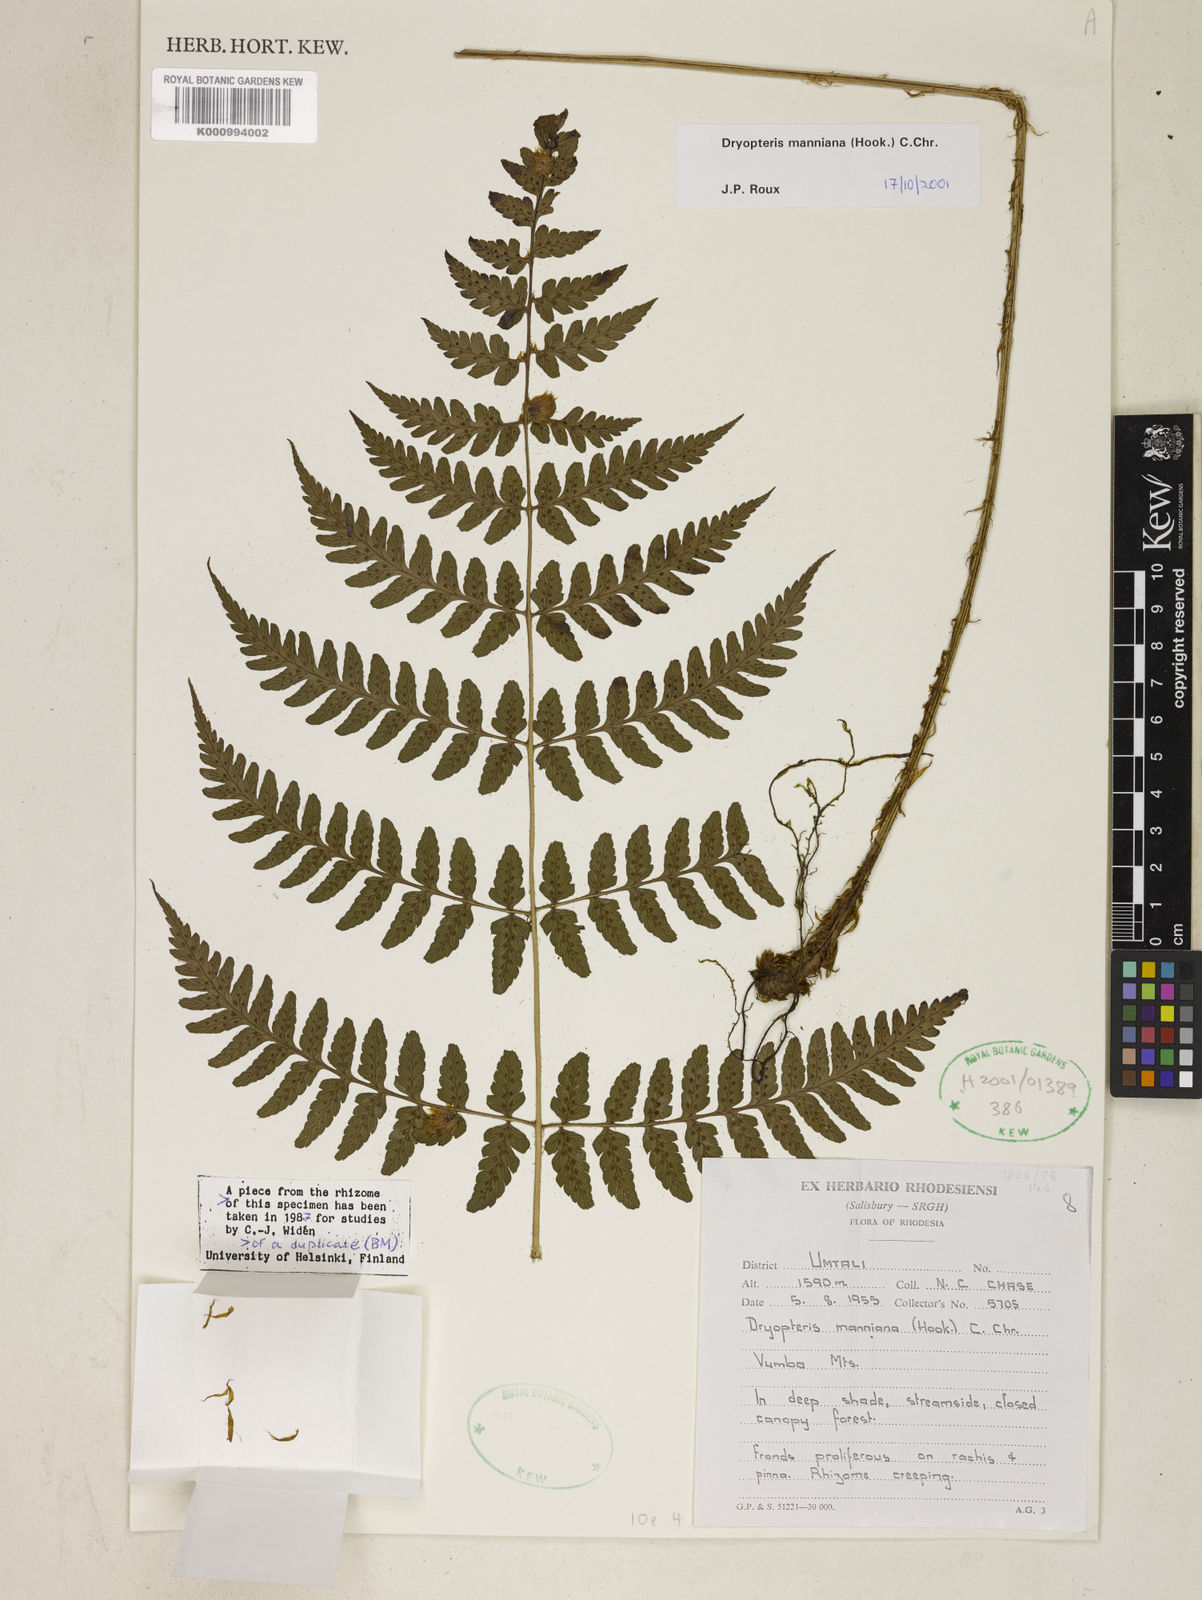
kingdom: Plantae
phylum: Tracheophyta
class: Polypodiopsida
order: Polypodiales
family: Dryopteridaceae
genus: Dryopteris
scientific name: Dryopteris manniana
